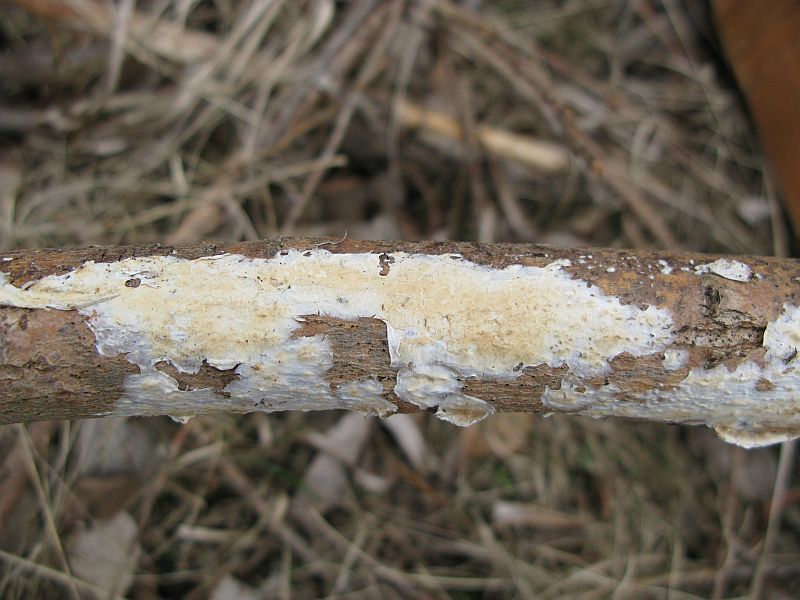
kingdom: Fungi
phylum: Basidiomycota
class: Agaricomycetes
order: Polyporales
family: Irpicaceae
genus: Efibula
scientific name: Efibula tuberculata
